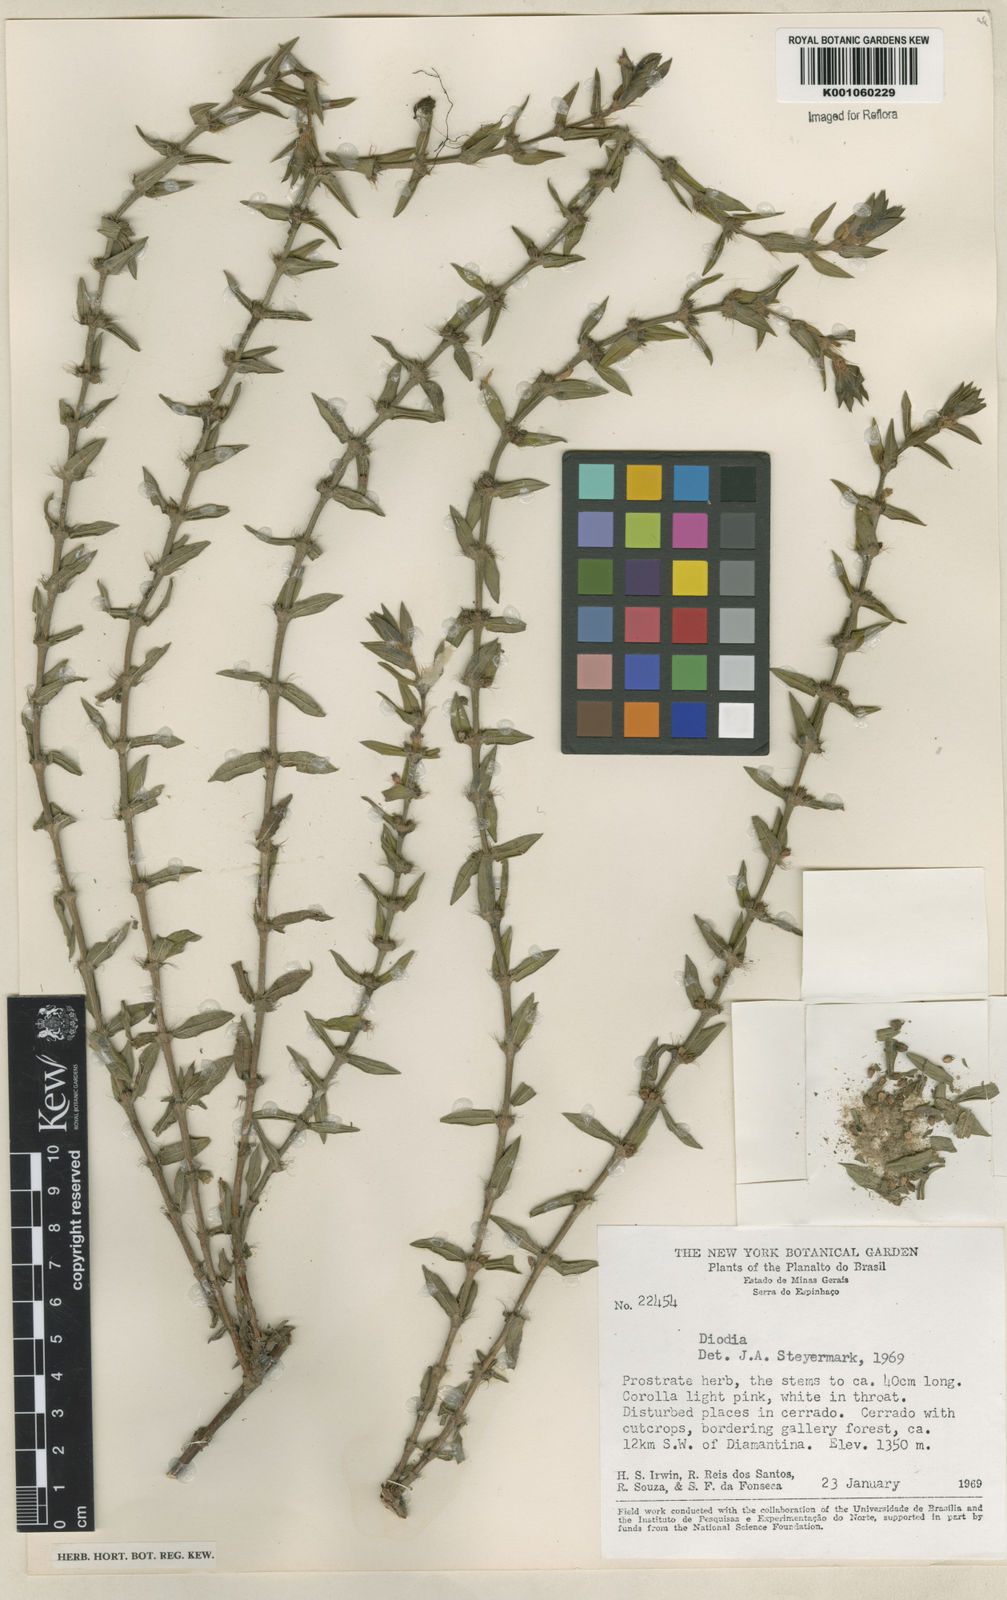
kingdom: Plantae
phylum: Tracheophyta
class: Magnoliopsida
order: Gentianales
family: Rubiaceae
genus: Hexasepalum
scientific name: Hexasepalum apiculatum
